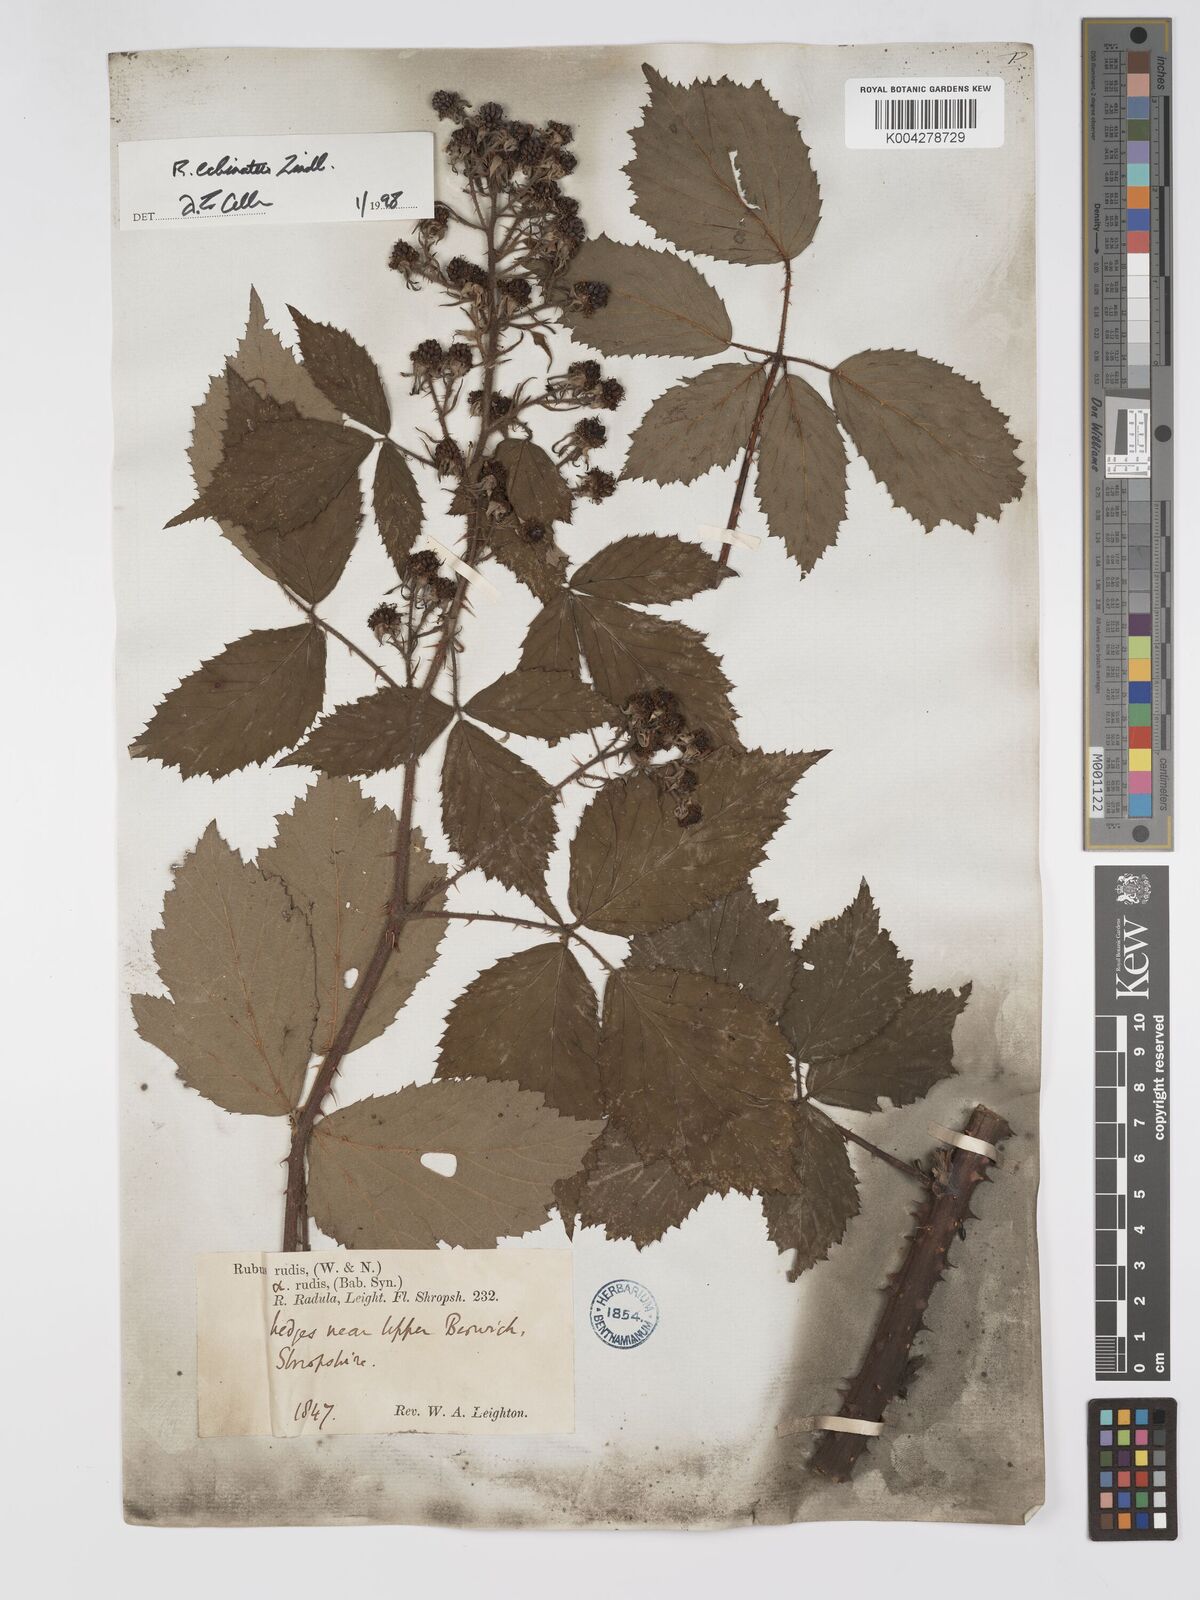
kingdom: Plantae
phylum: Tracheophyta
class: Magnoliopsida
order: Rosales
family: Rosaceae
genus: Rubus
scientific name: Rubus echinatus
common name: Echinate bramble
